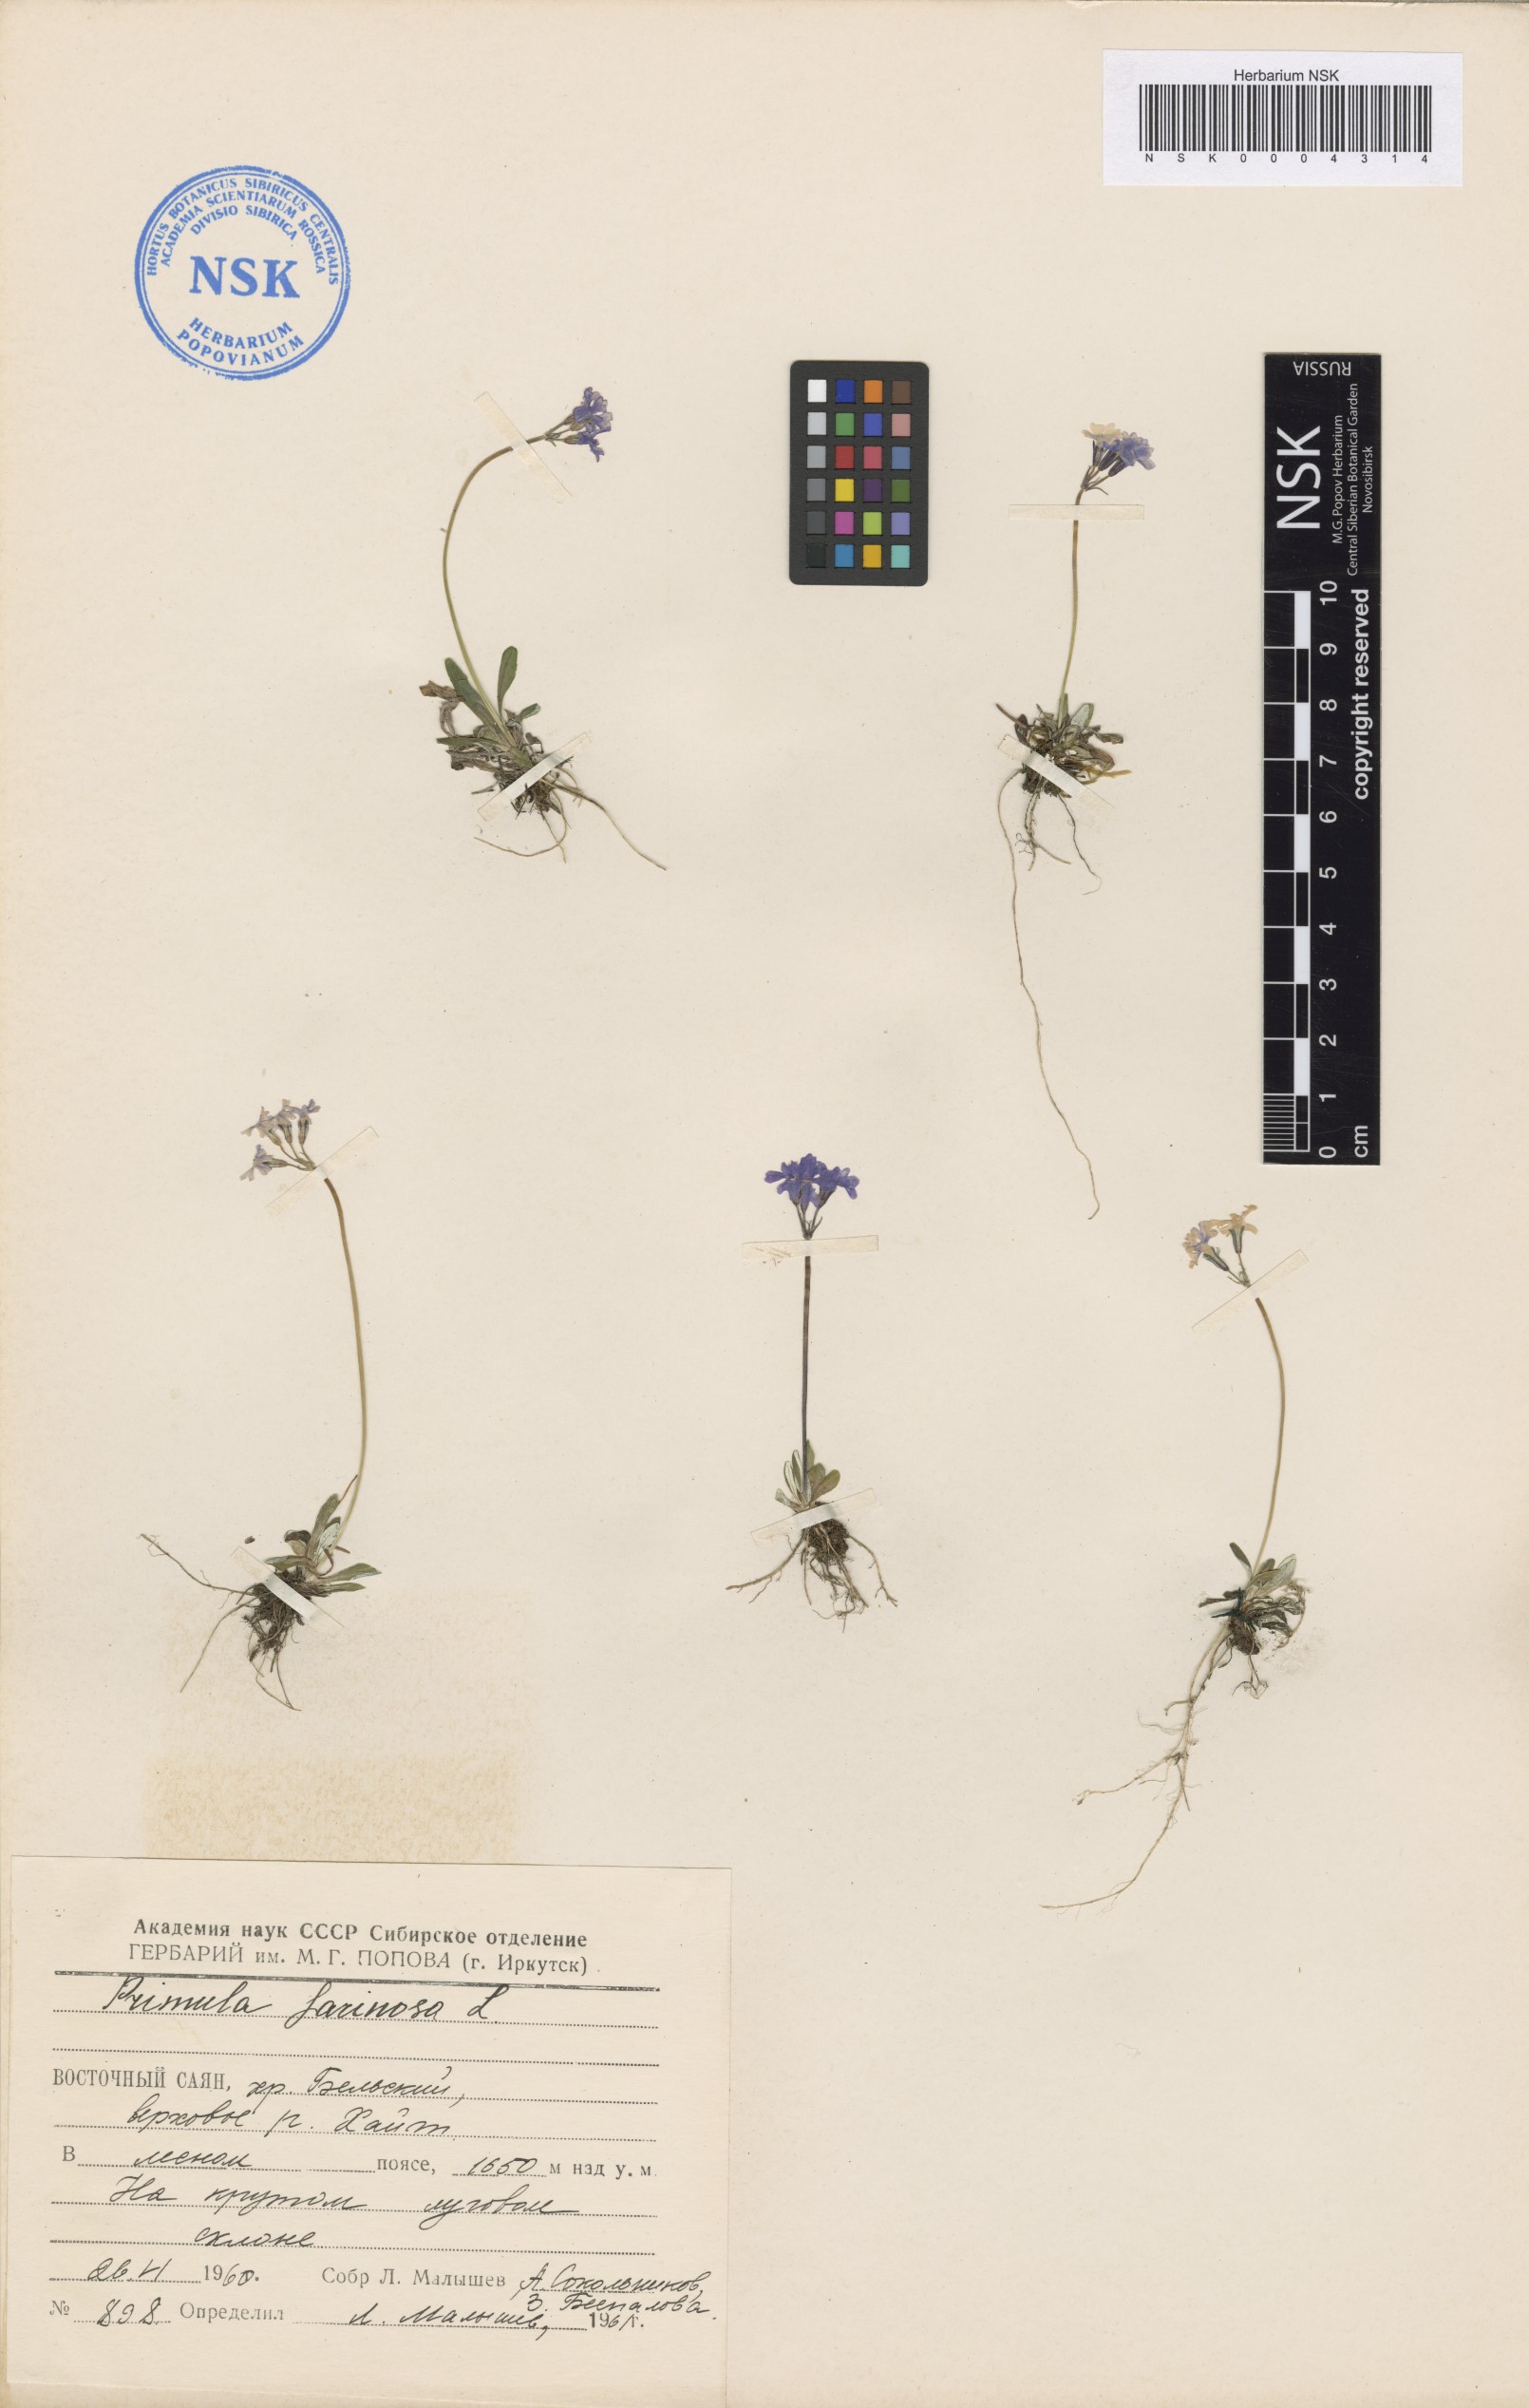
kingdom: Plantae
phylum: Tracheophyta
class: Magnoliopsida
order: Ericales
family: Primulaceae
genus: Primula
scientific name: Primula farinosa
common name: Bird's-eye primrose
